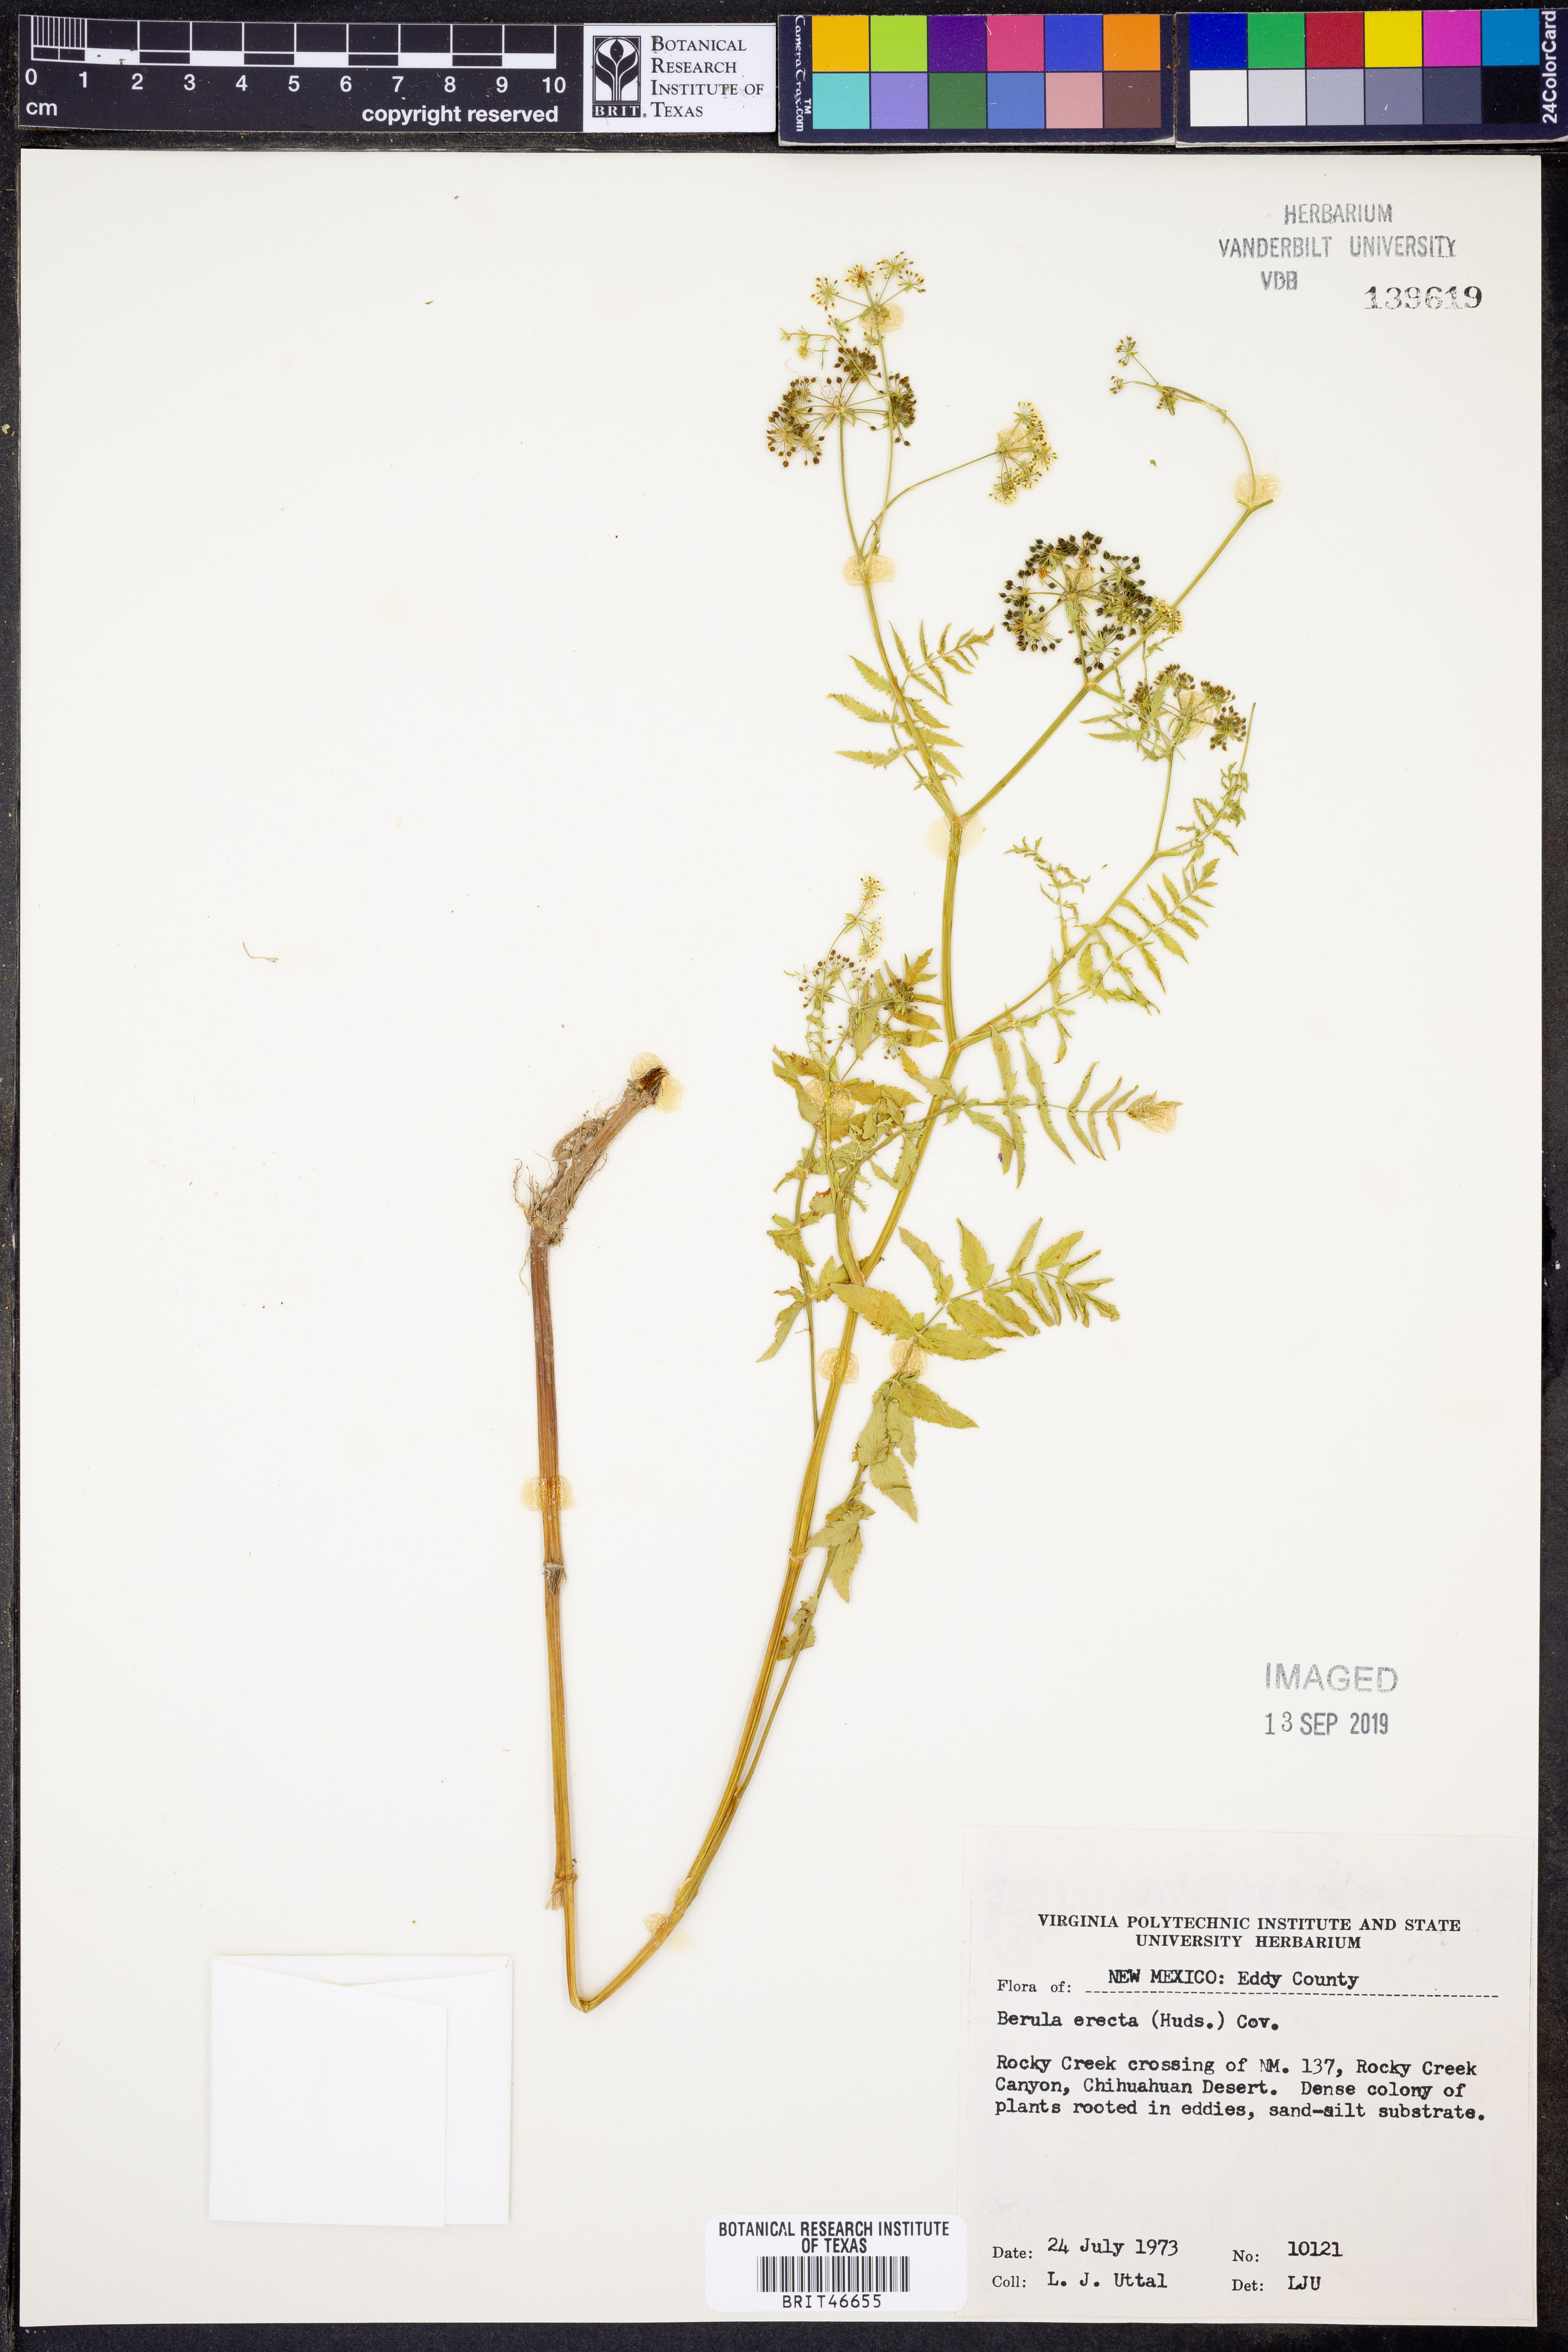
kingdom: Plantae
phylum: Tracheophyta
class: Magnoliopsida
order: Apiales
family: Apiaceae
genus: Berula
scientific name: Berula erecta
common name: Lesser water-parsnip
